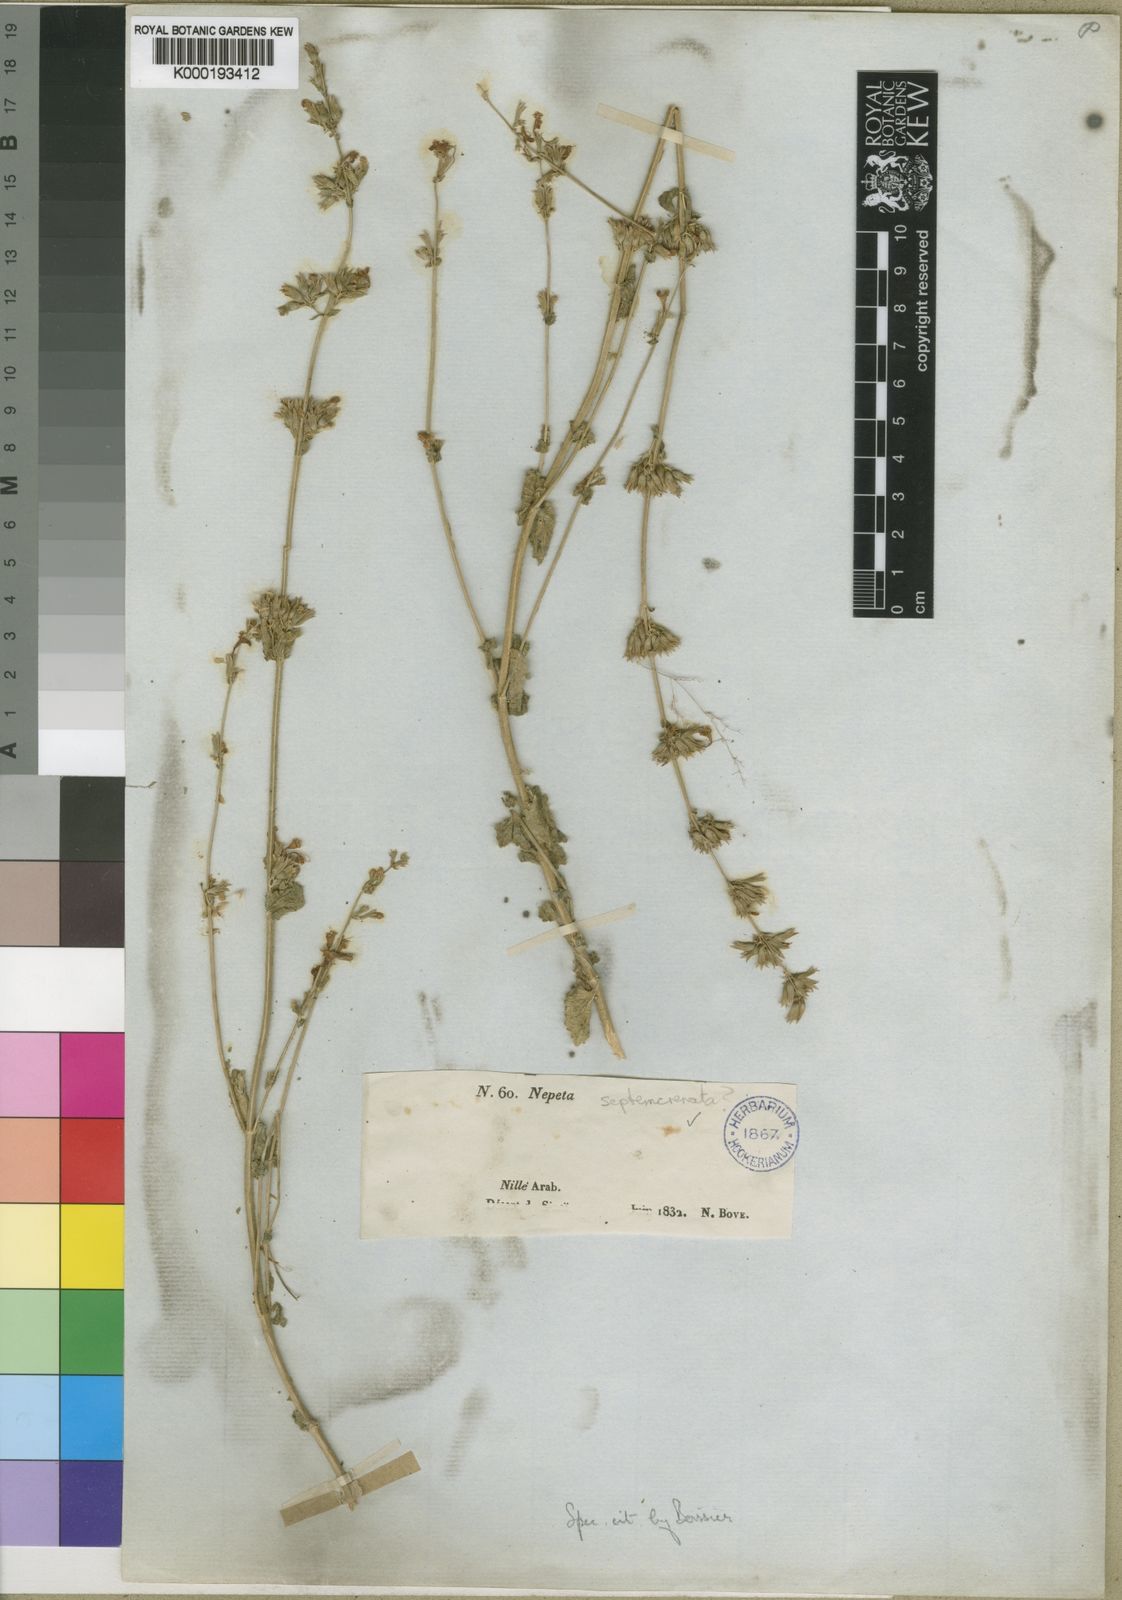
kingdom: Plantae
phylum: Tracheophyta
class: Magnoliopsida
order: Lamiales
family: Lamiaceae
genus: Nepeta
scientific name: Nepeta septemcrenata
